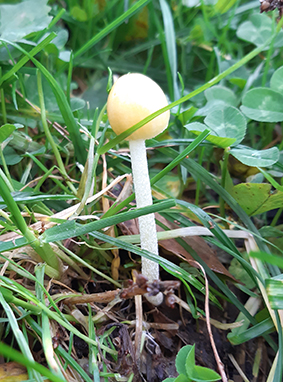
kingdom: Fungi
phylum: Basidiomycota
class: Agaricomycetes
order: Agaricales
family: Bolbitiaceae
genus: Bolbitius
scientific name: Bolbitius titubans
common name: almindelig gulhat
